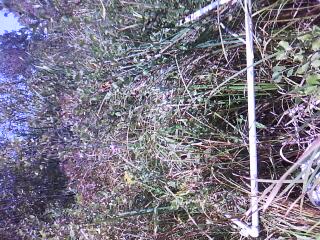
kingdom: Plantae
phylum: Tracheophyta
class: Magnoliopsida
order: Fagales
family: Betulaceae
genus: Betula
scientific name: Betula pumila
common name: Bog birch
